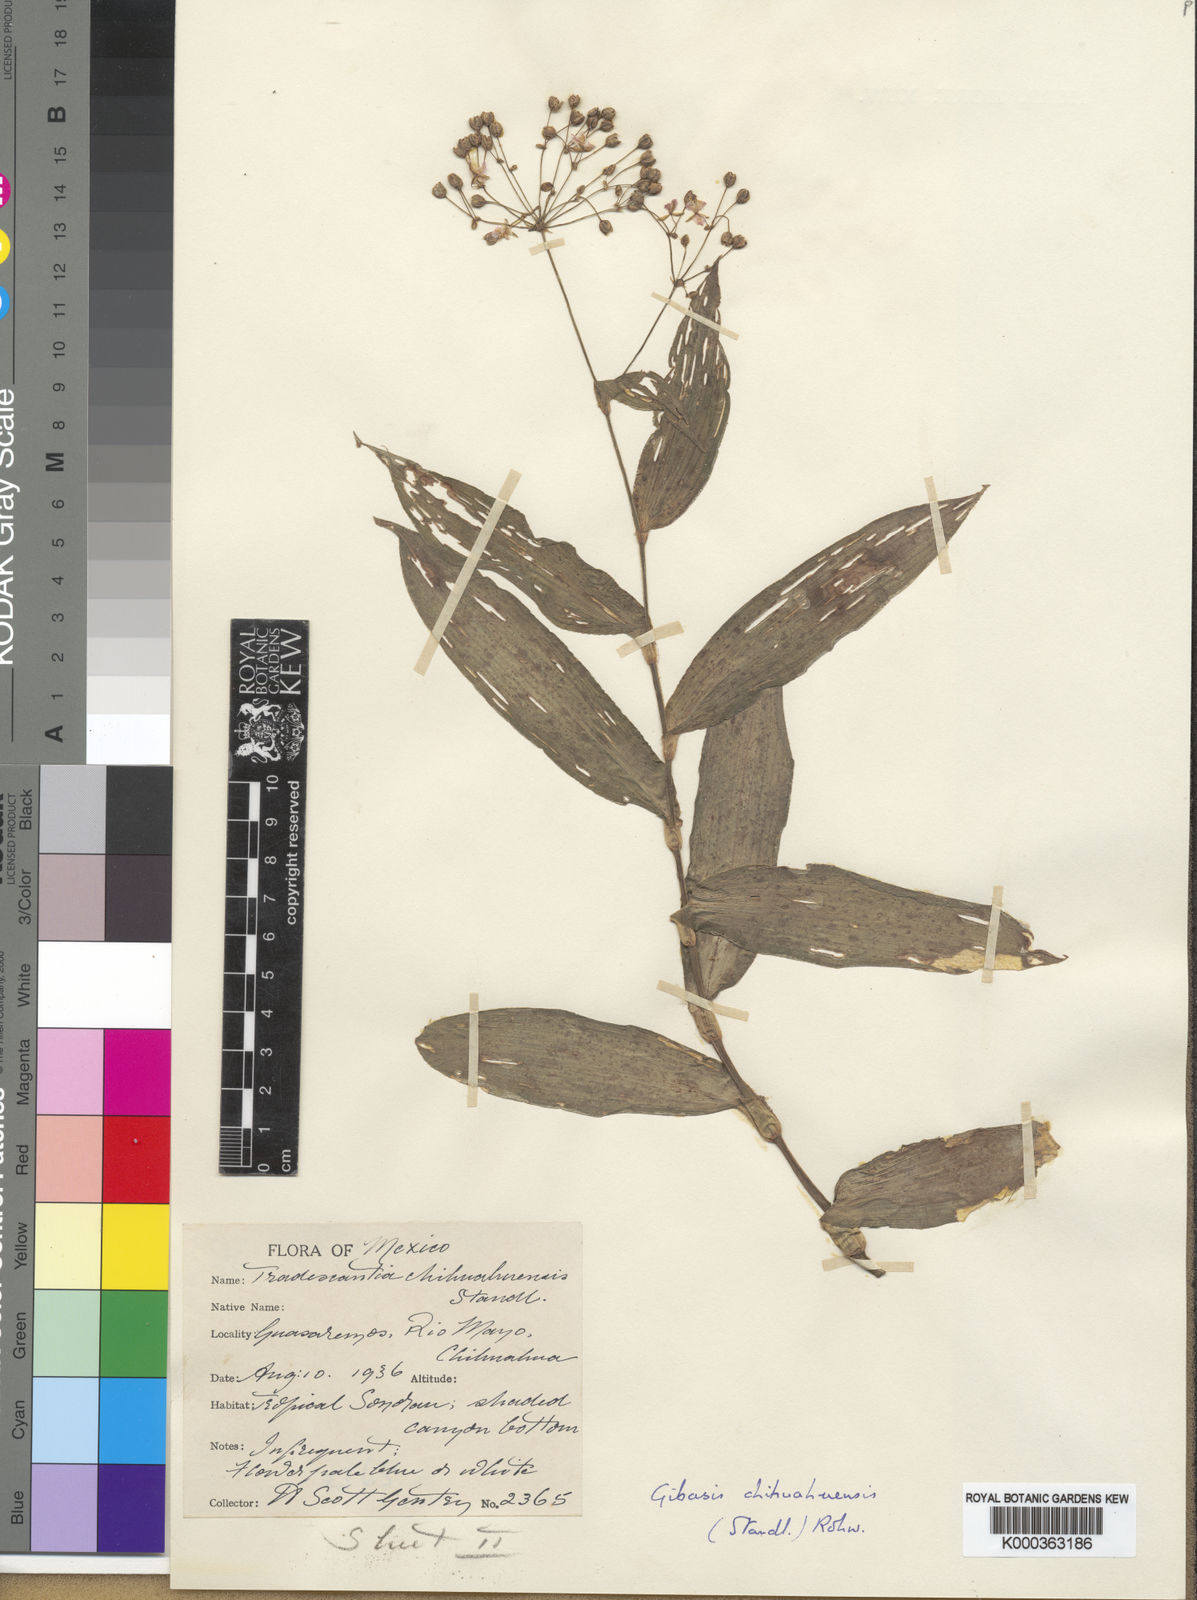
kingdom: Plantae
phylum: Tracheophyta
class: Liliopsida
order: Commelinales
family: Commelinaceae
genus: Gibasis
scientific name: Gibasis chihuahuensis
